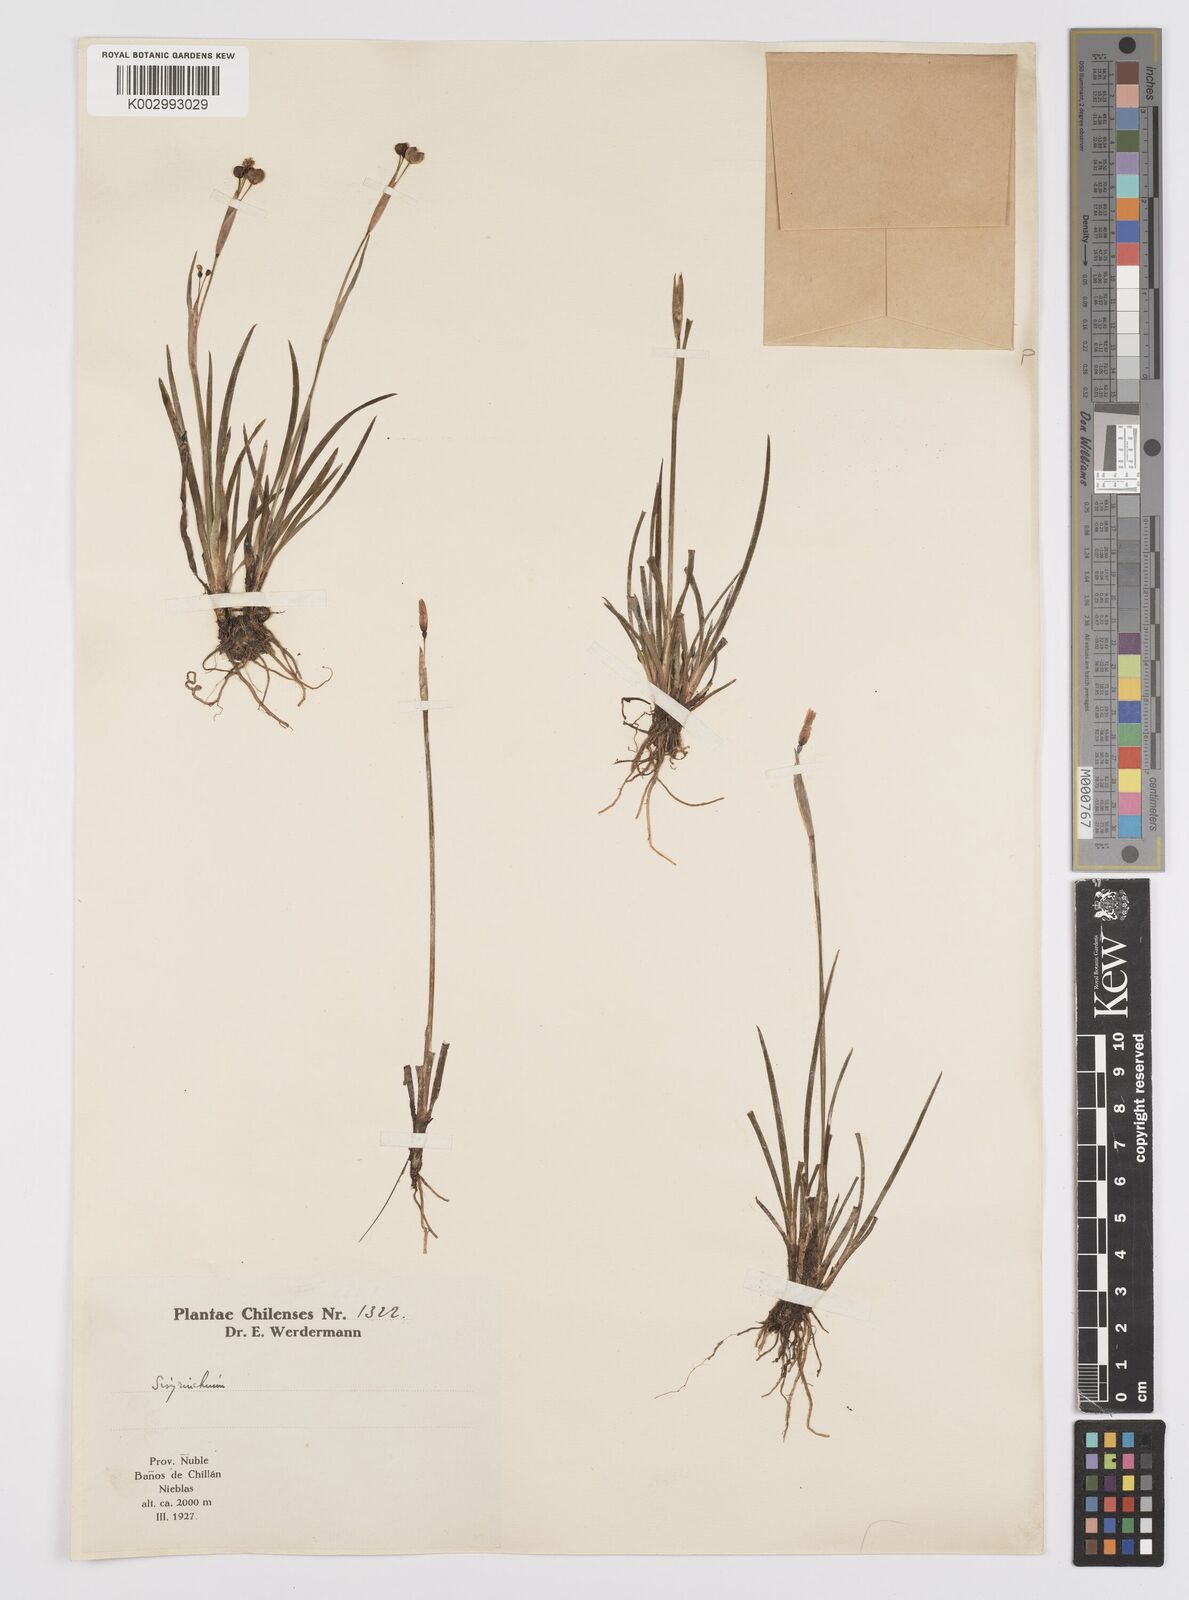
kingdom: Plantae
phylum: Tracheophyta
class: Liliopsida
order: Asparagales
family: Iridaceae
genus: Sisyrinchium
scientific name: Sisyrinchium
